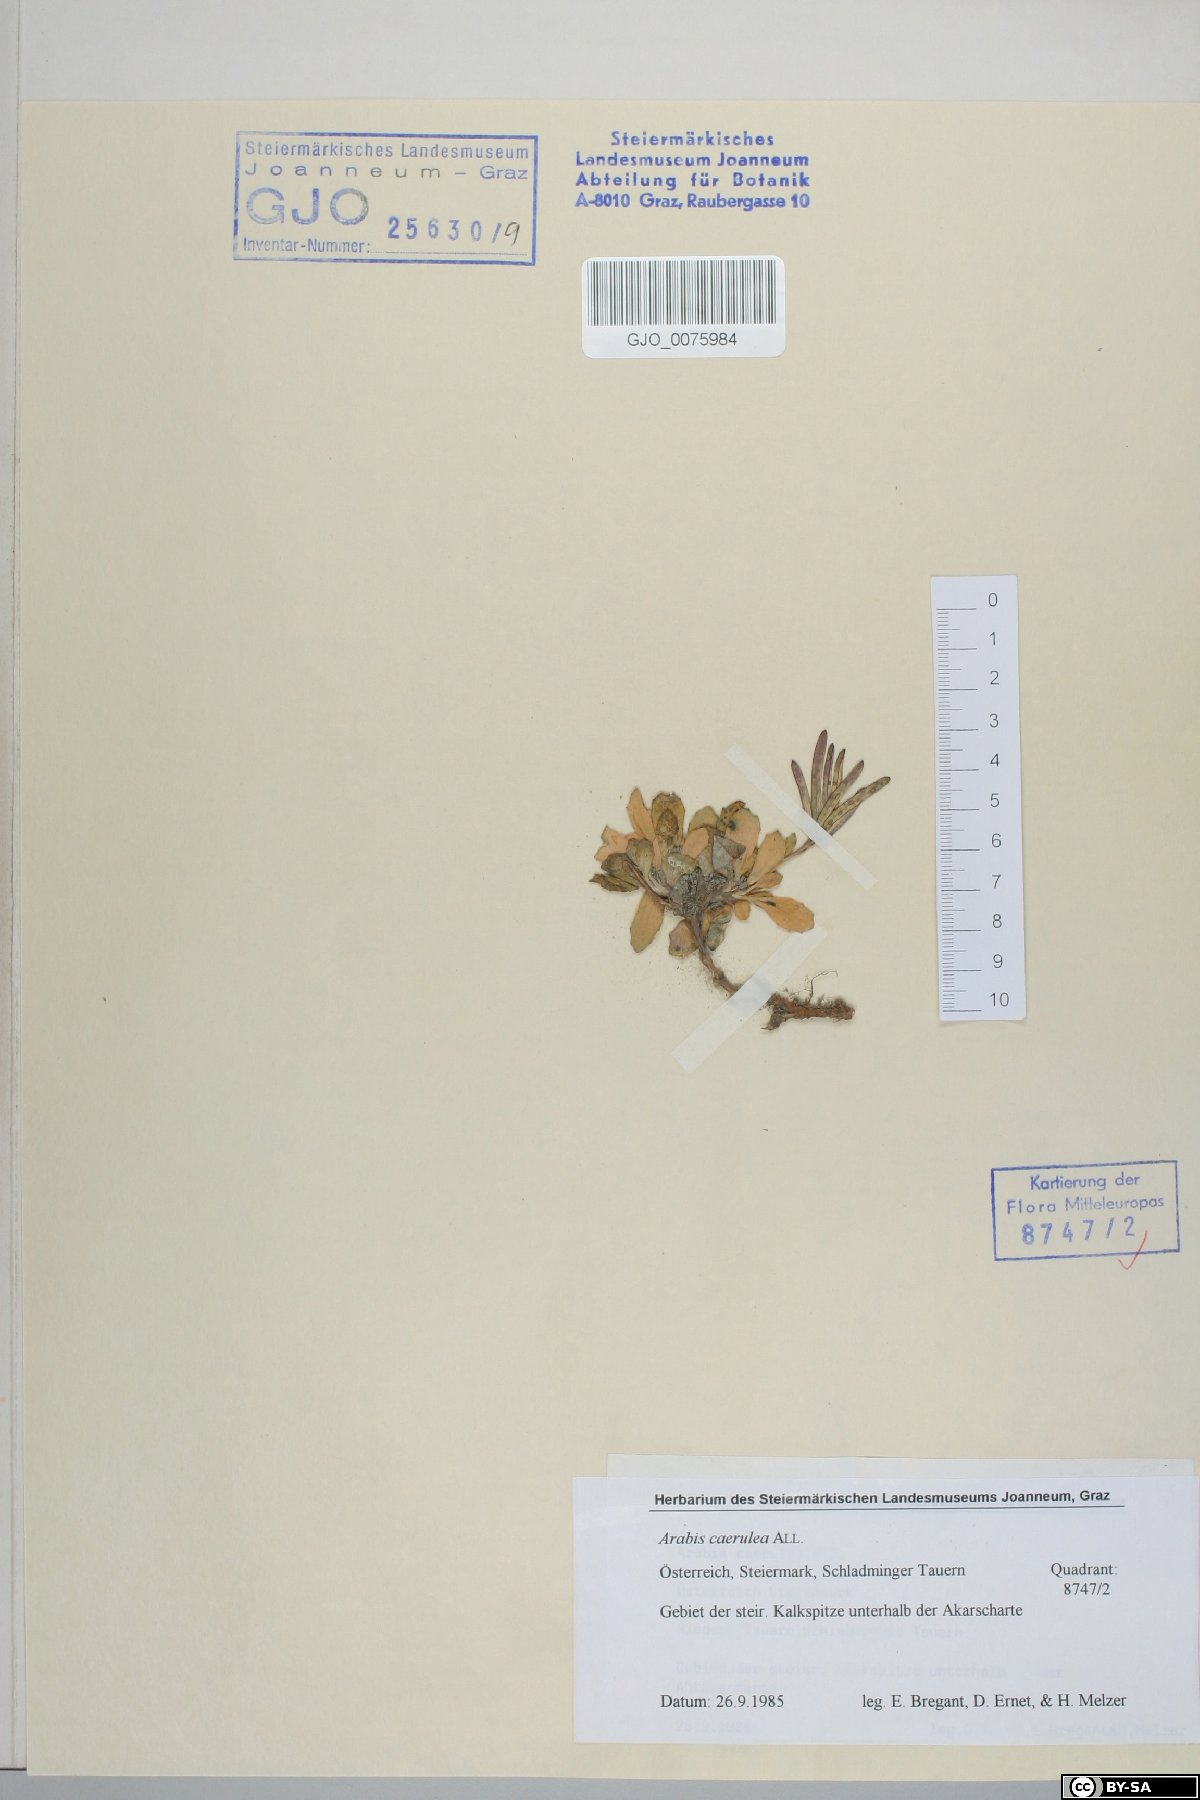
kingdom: Plantae
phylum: Tracheophyta
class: Magnoliopsida
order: Brassicales
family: Brassicaceae
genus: Arabis
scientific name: Arabis caerulea
